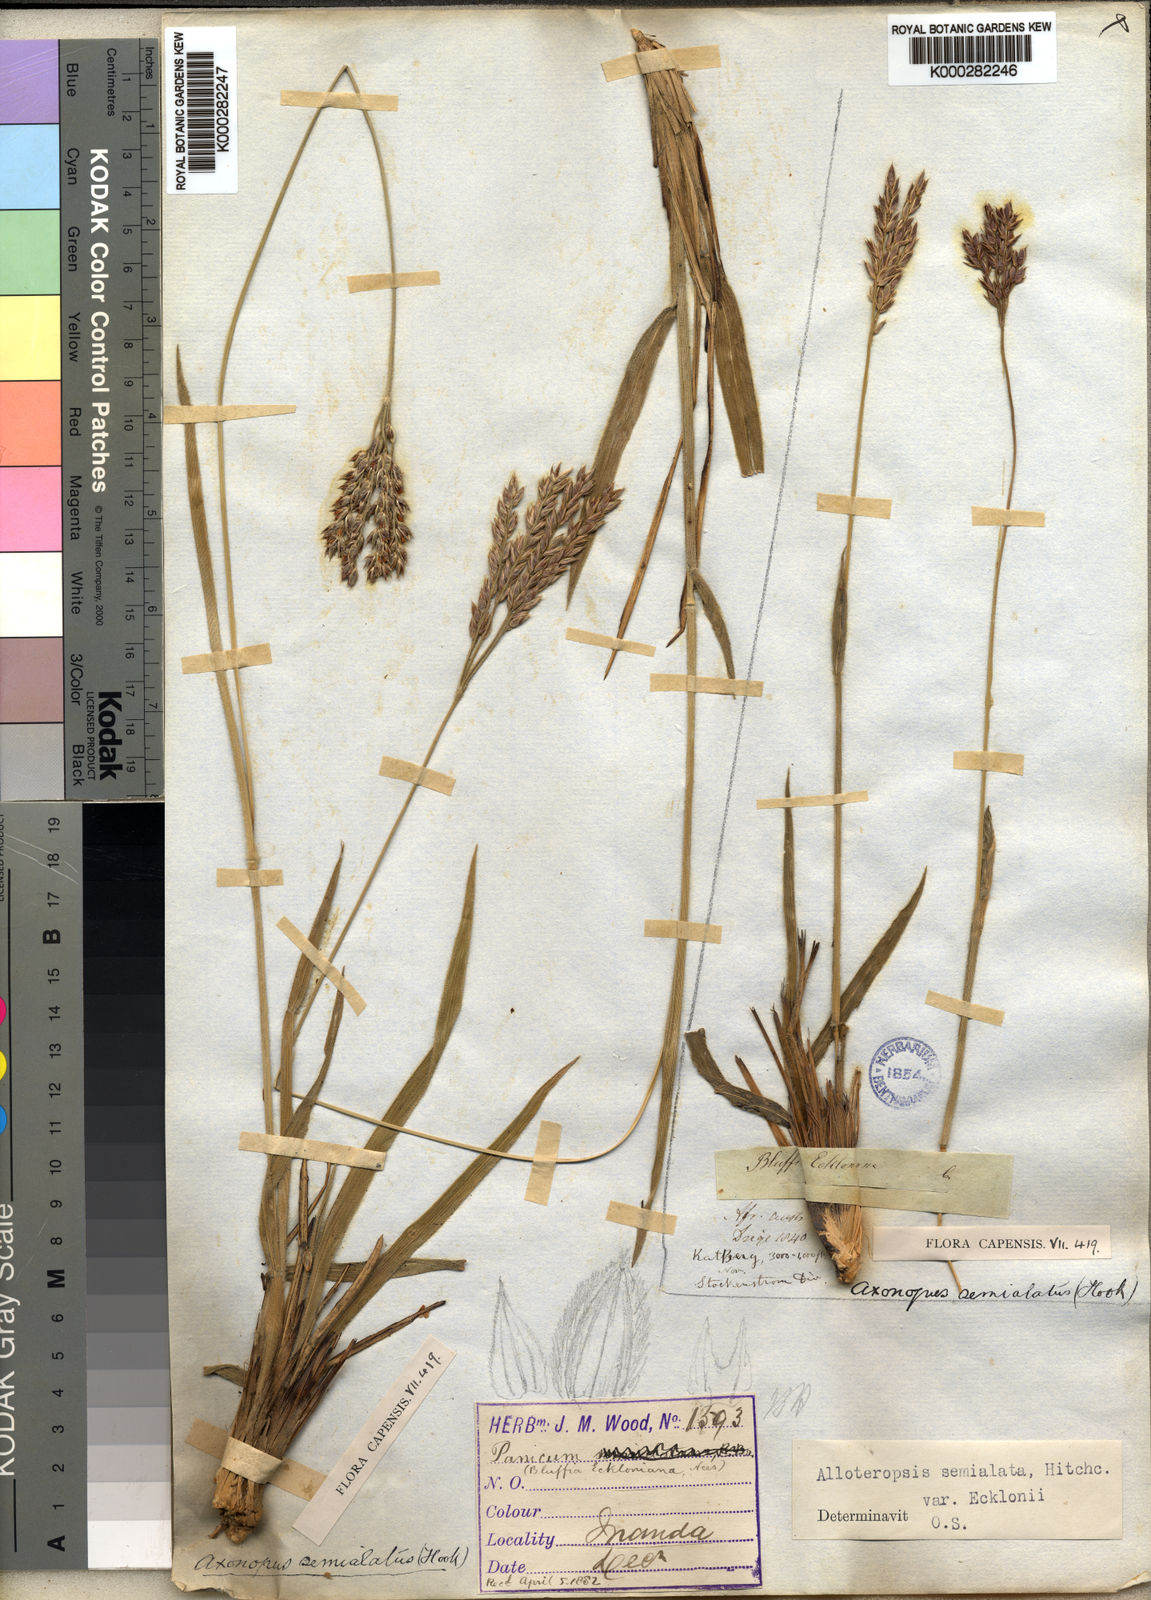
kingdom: Plantae
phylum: Tracheophyta
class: Liliopsida
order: Poales
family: Poaceae
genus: Alloteropsis
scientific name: Alloteropsis semialata
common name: Cockatoo grass
